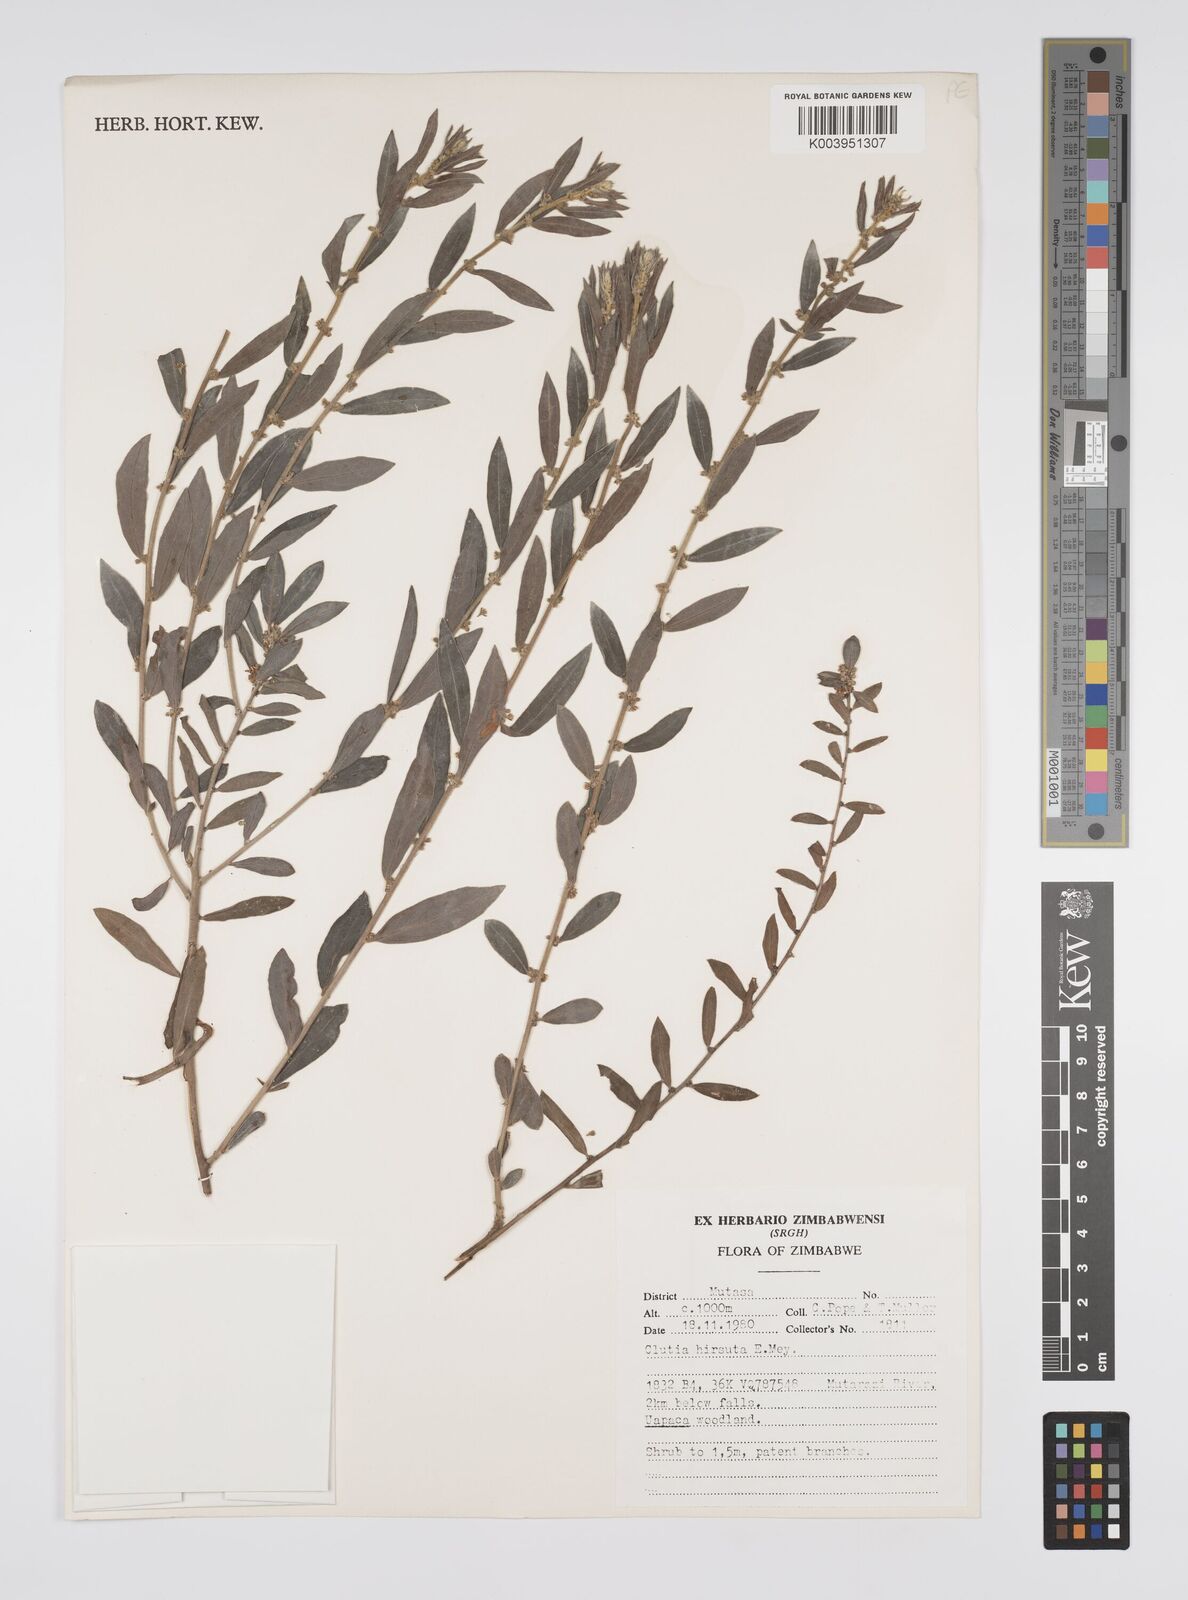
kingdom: Plantae
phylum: Tracheophyta
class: Magnoliopsida
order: Malpighiales
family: Peraceae
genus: Clutia
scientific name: Clutia hirsuta
